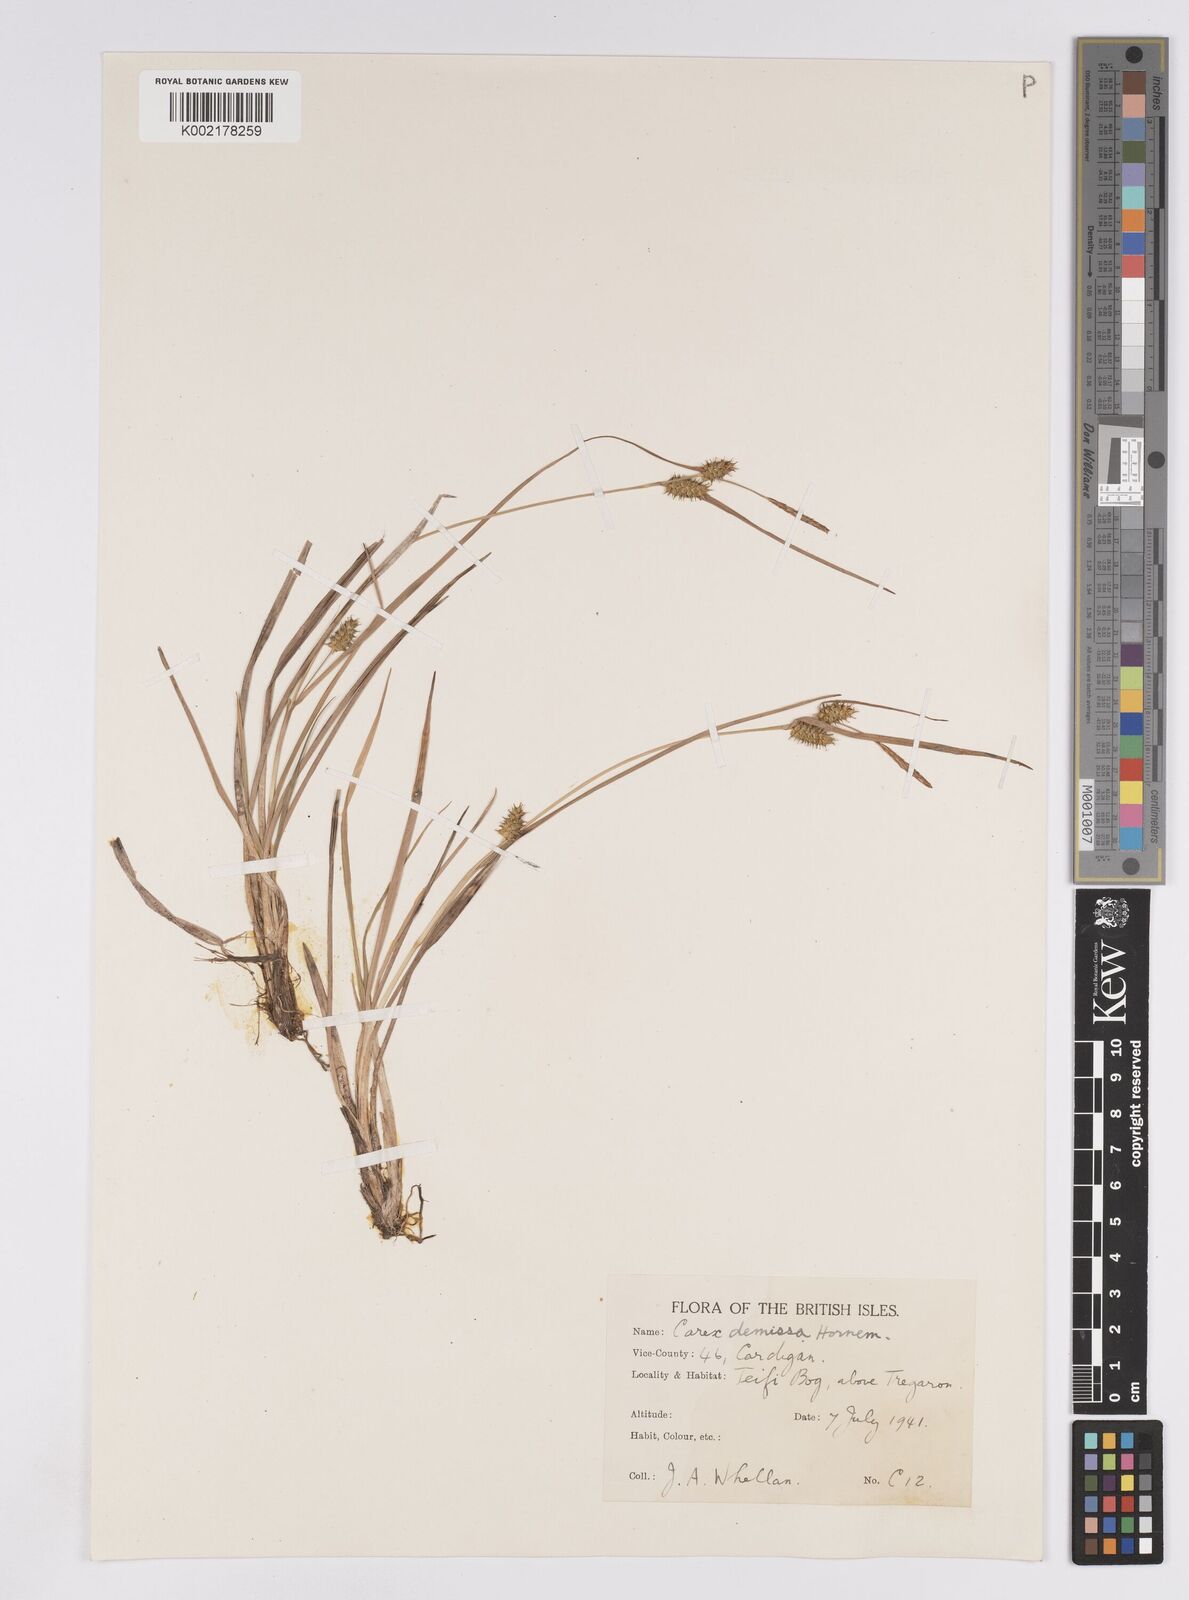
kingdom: Plantae
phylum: Tracheophyta
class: Liliopsida
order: Poales
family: Cyperaceae
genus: Carex
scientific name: Carex demissa
